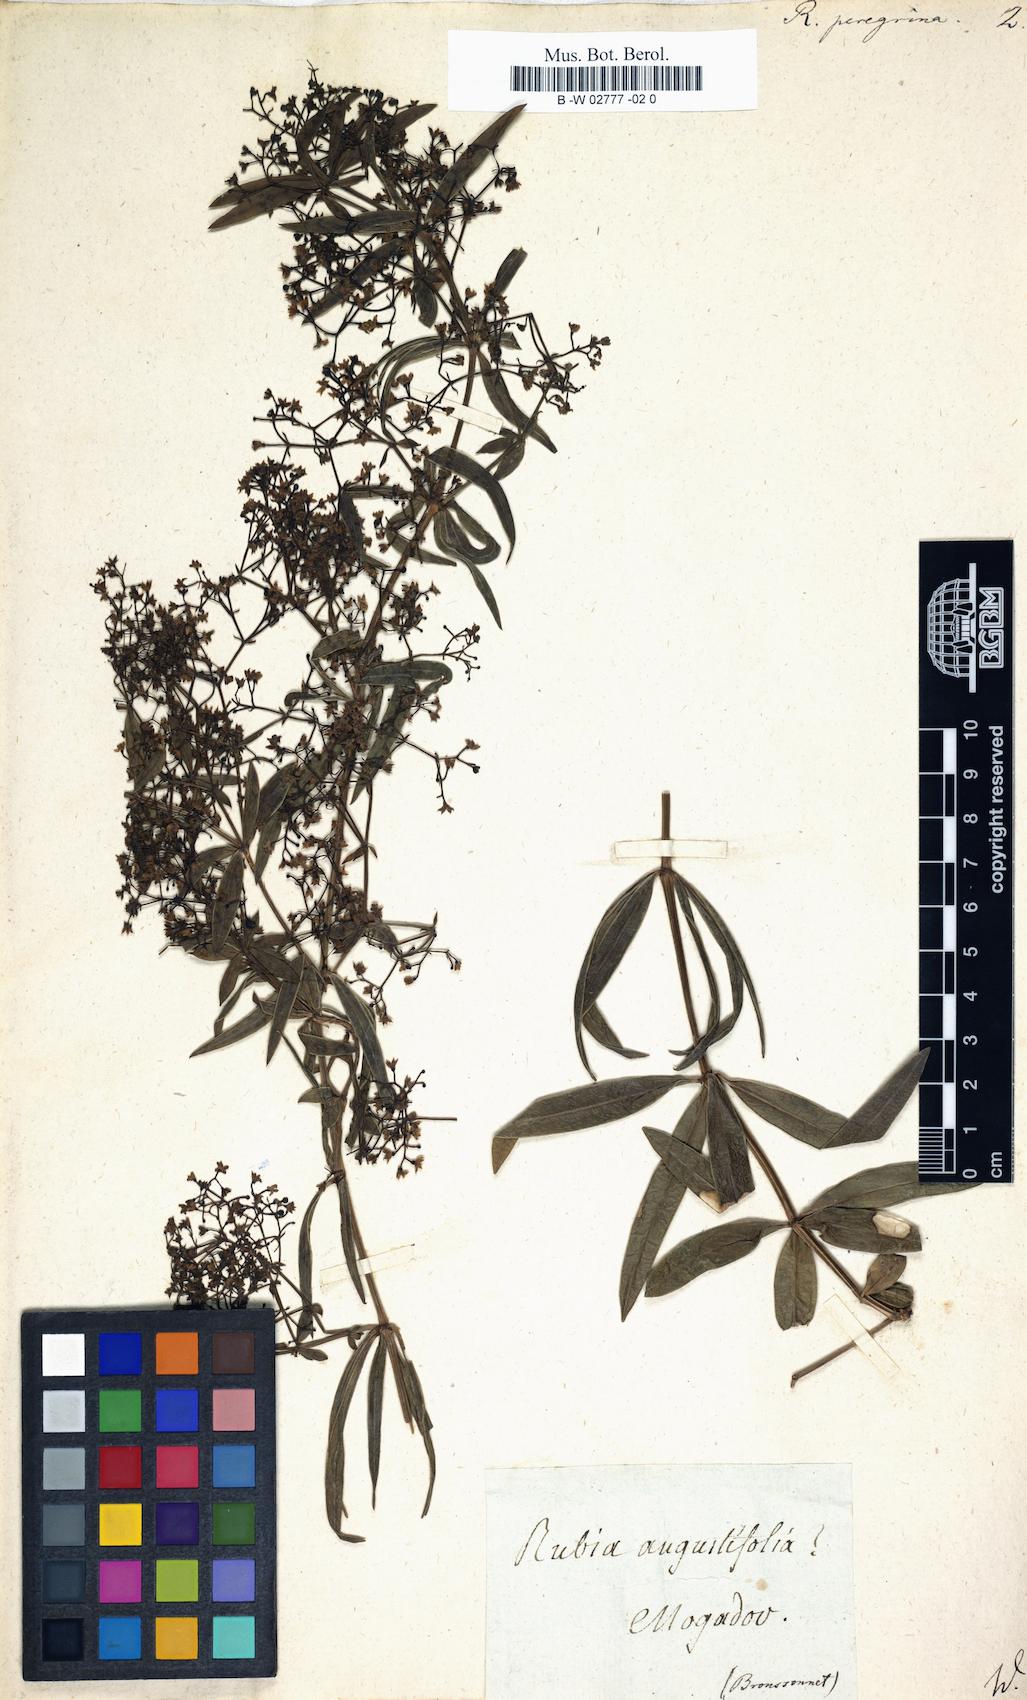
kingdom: Plantae
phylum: Tracheophyta
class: Magnoliopsida
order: Gentianales
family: Rubiaceae
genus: Rubia
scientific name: Rubia peregrina
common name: Wild madder
